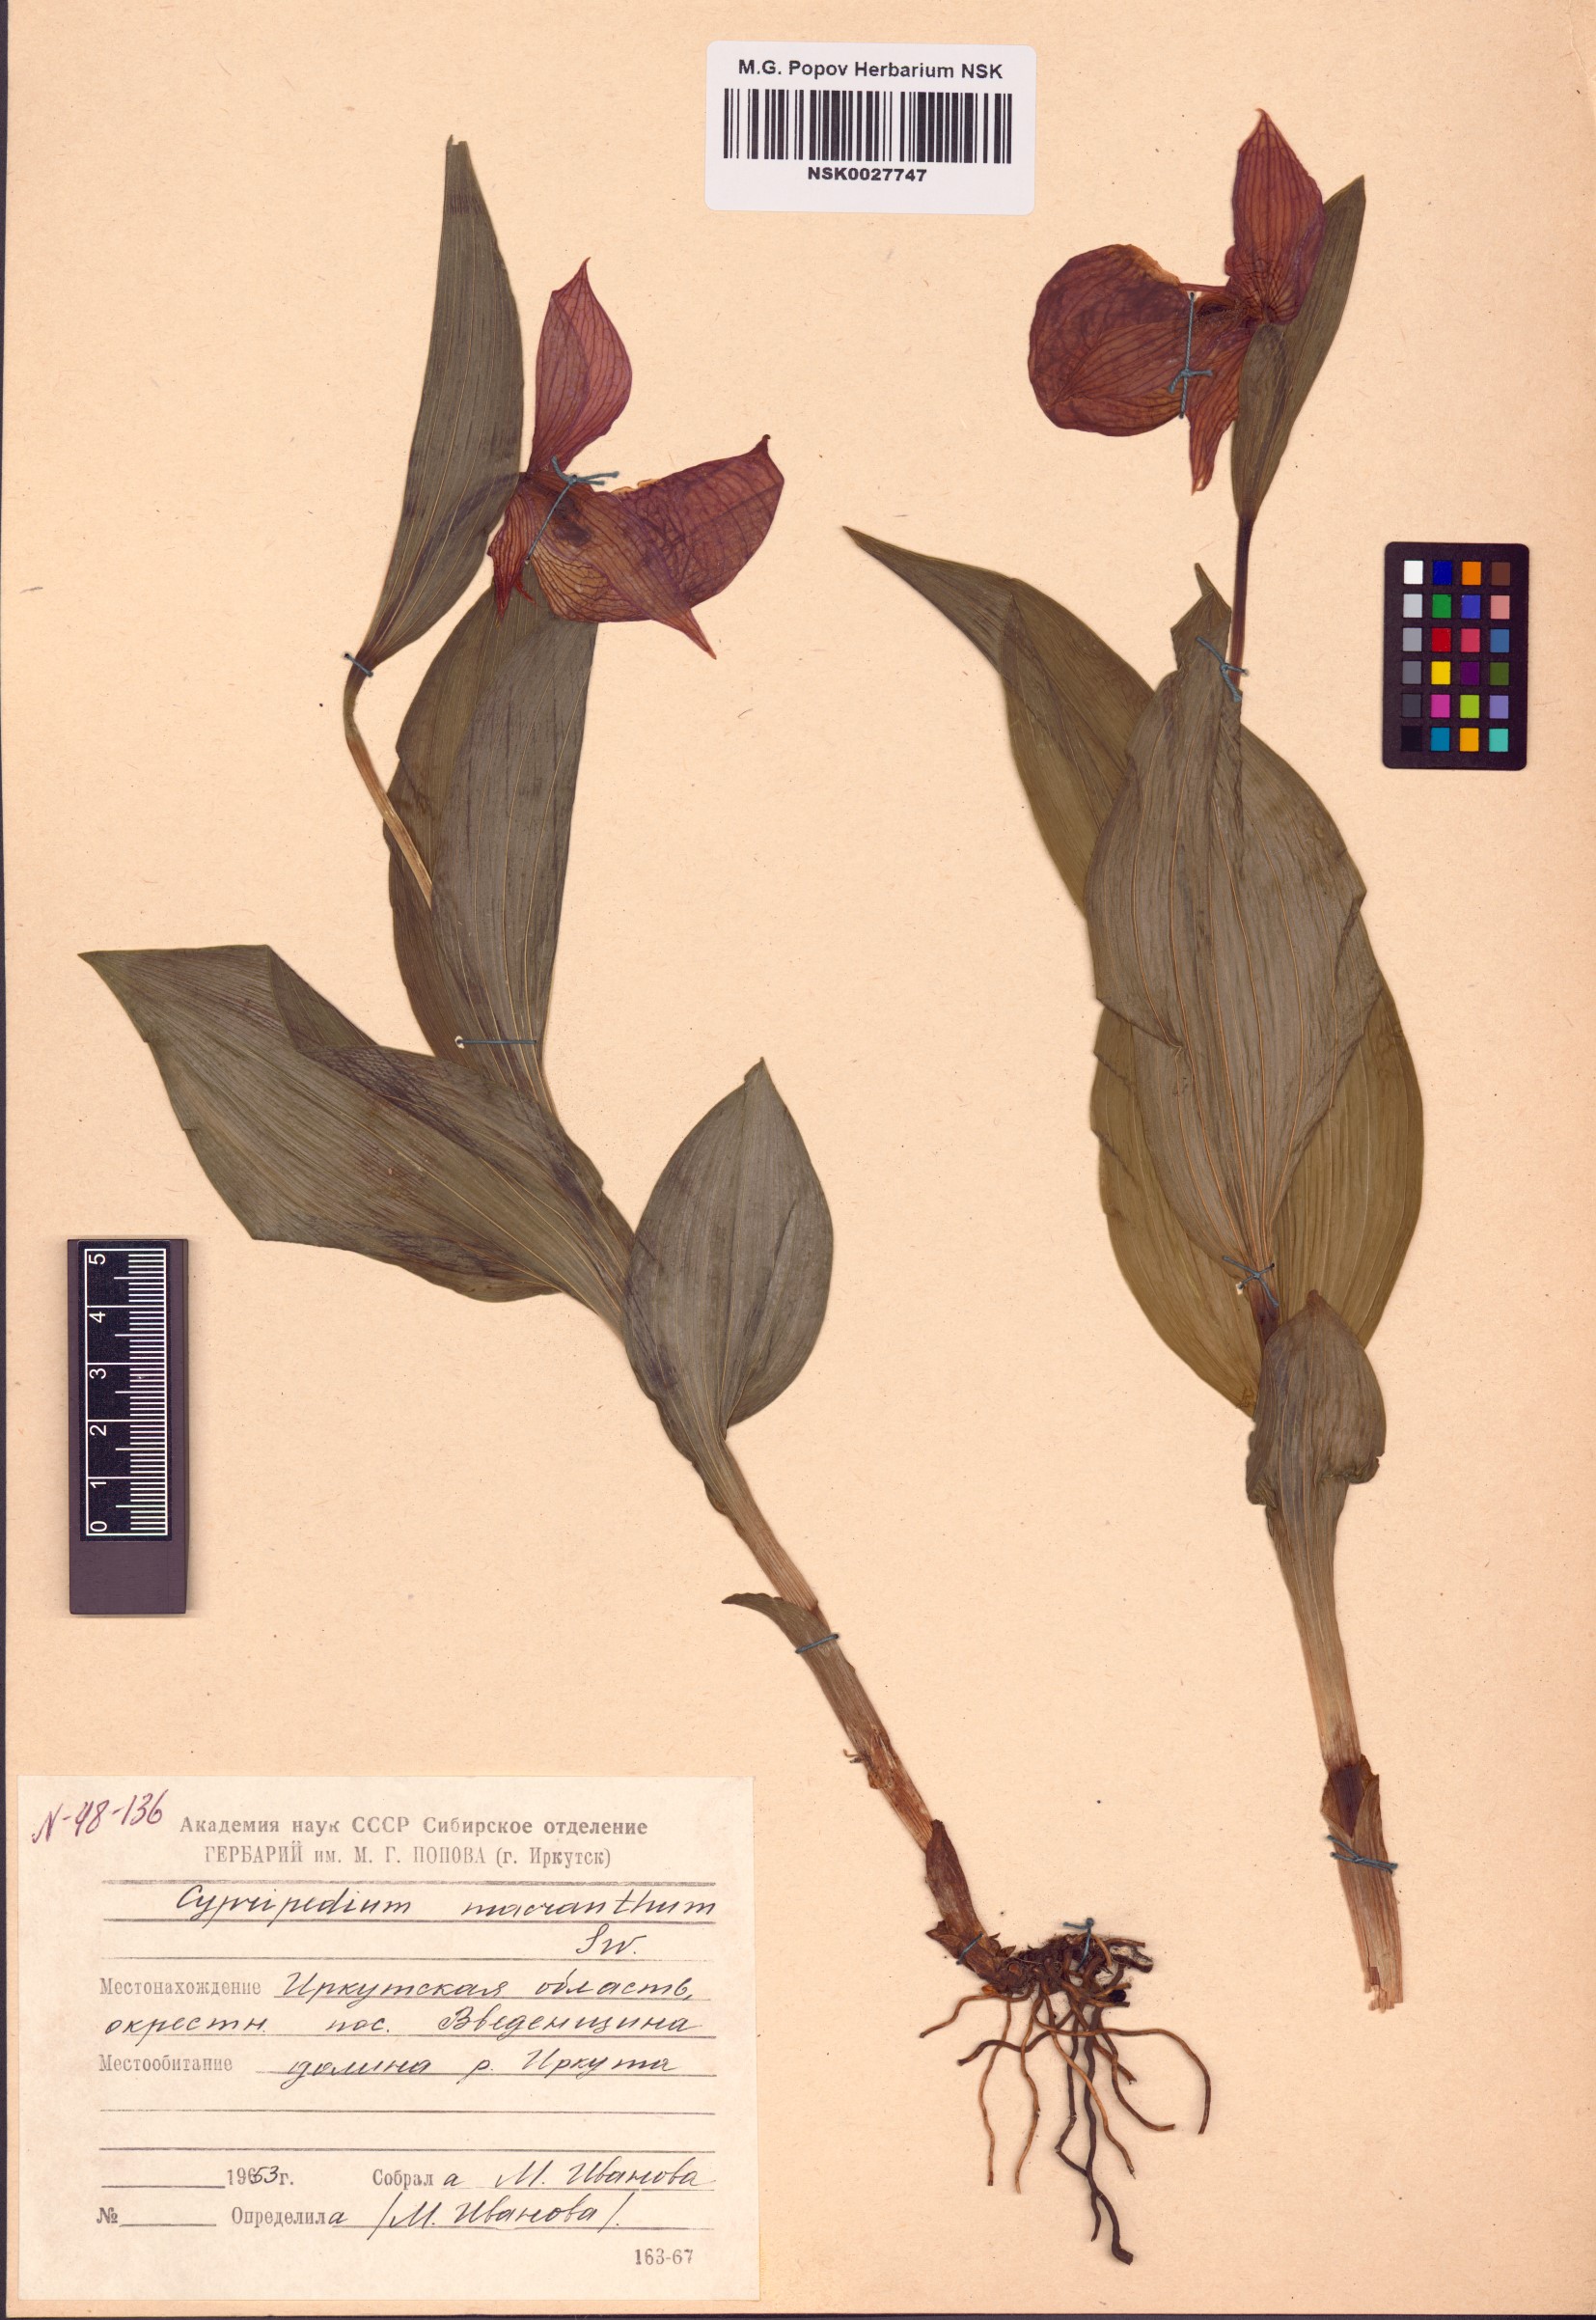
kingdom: Plantae
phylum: Tracheophyta
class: Liliopsida
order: Asparagales
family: Orchidaceae
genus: Cypripedium
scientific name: Cypripedium macranthos
